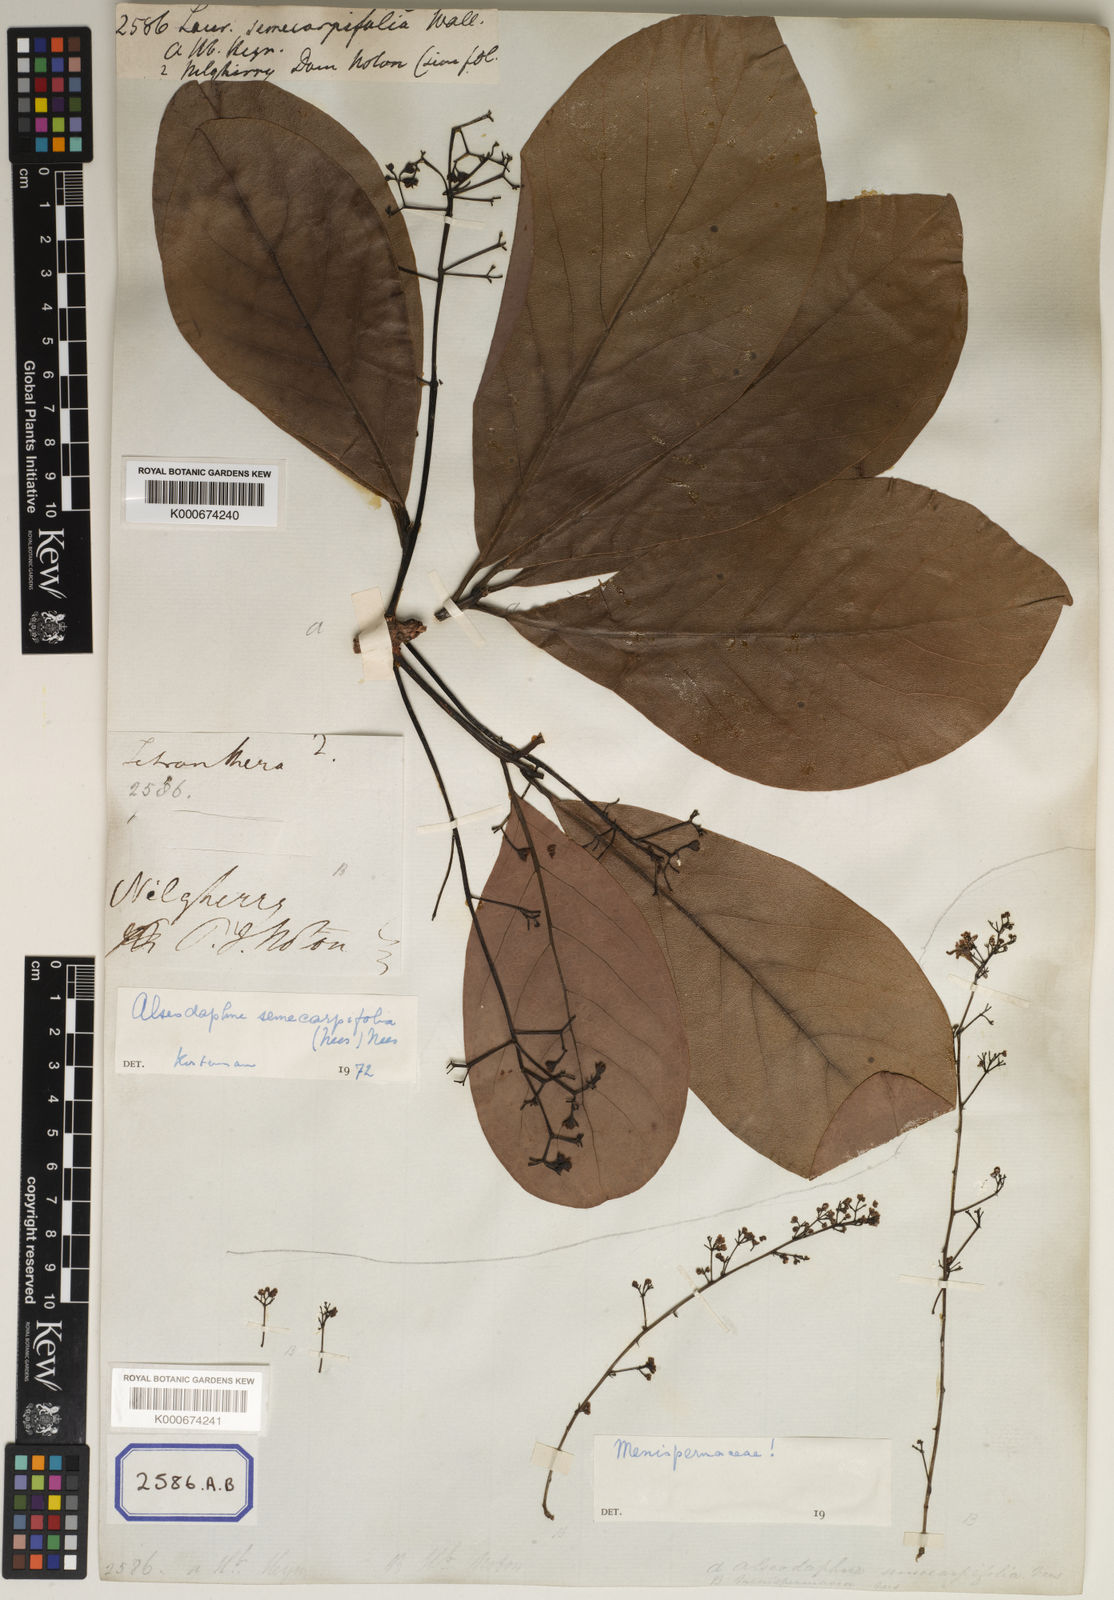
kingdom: Plantae
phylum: Tracheophyta
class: Magnoliopsida
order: Laurales
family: Lauraceae
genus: Alseodaphne
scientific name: Alseodaphne semecarpifolia
